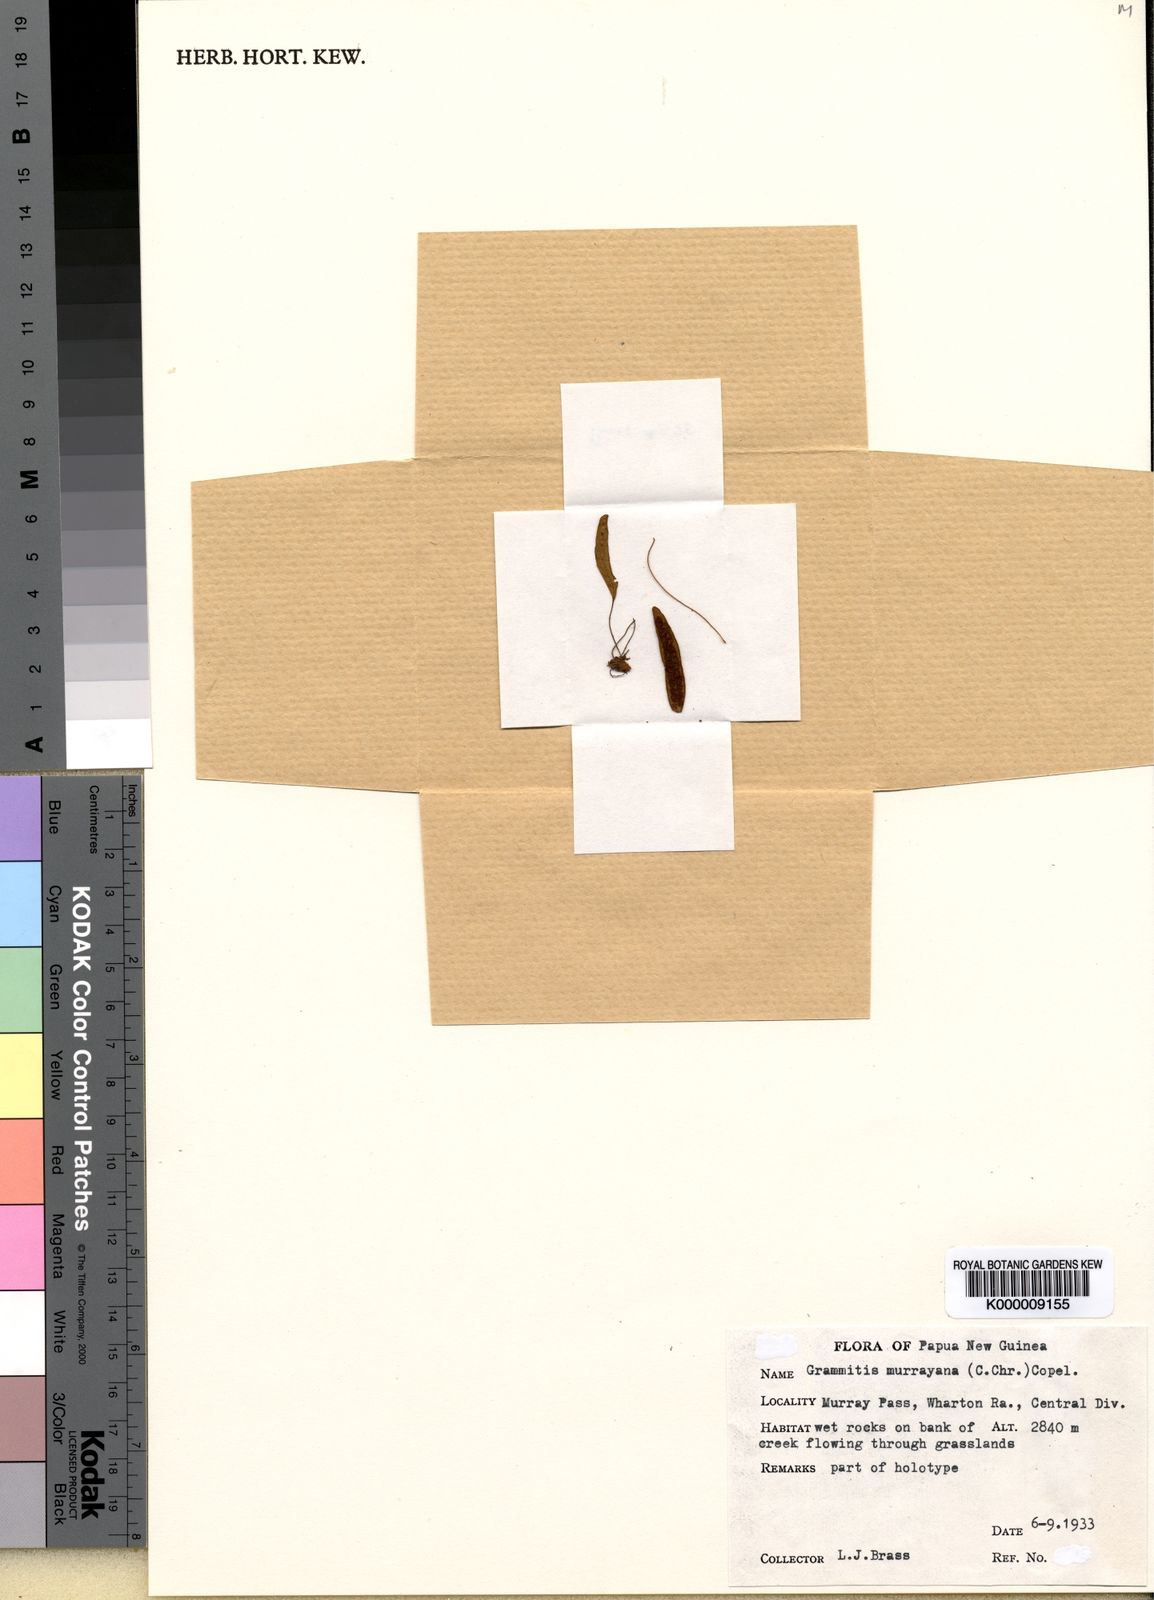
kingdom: Plantae
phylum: Tracheophyta
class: Polypodiopsida
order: Polypodiales
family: Polypodiaceae
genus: Oreogrammitis
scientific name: Oreogrammitis murrayana
